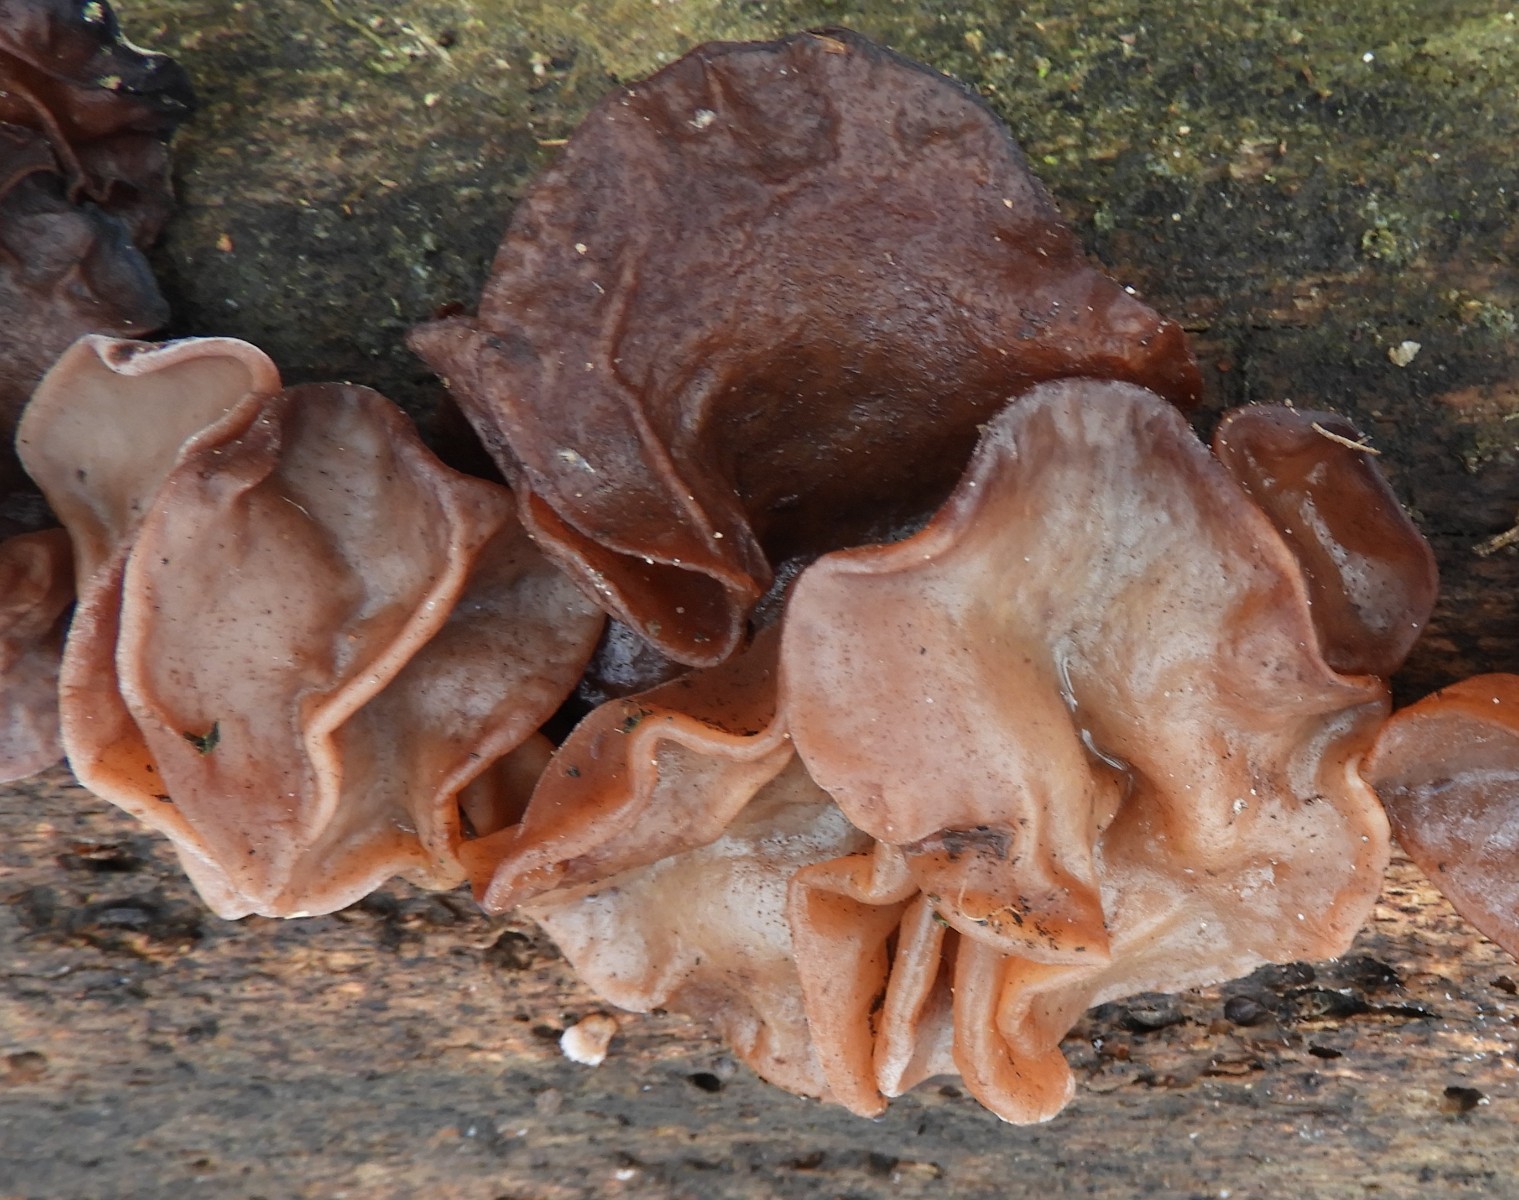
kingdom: Fungi
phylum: Basidiomycota
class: Agaricomycetes
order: Auriculariales
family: Auriculariaceae
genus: Auricularia
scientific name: Auricularia auricula-judae
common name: almindelig judasøre
